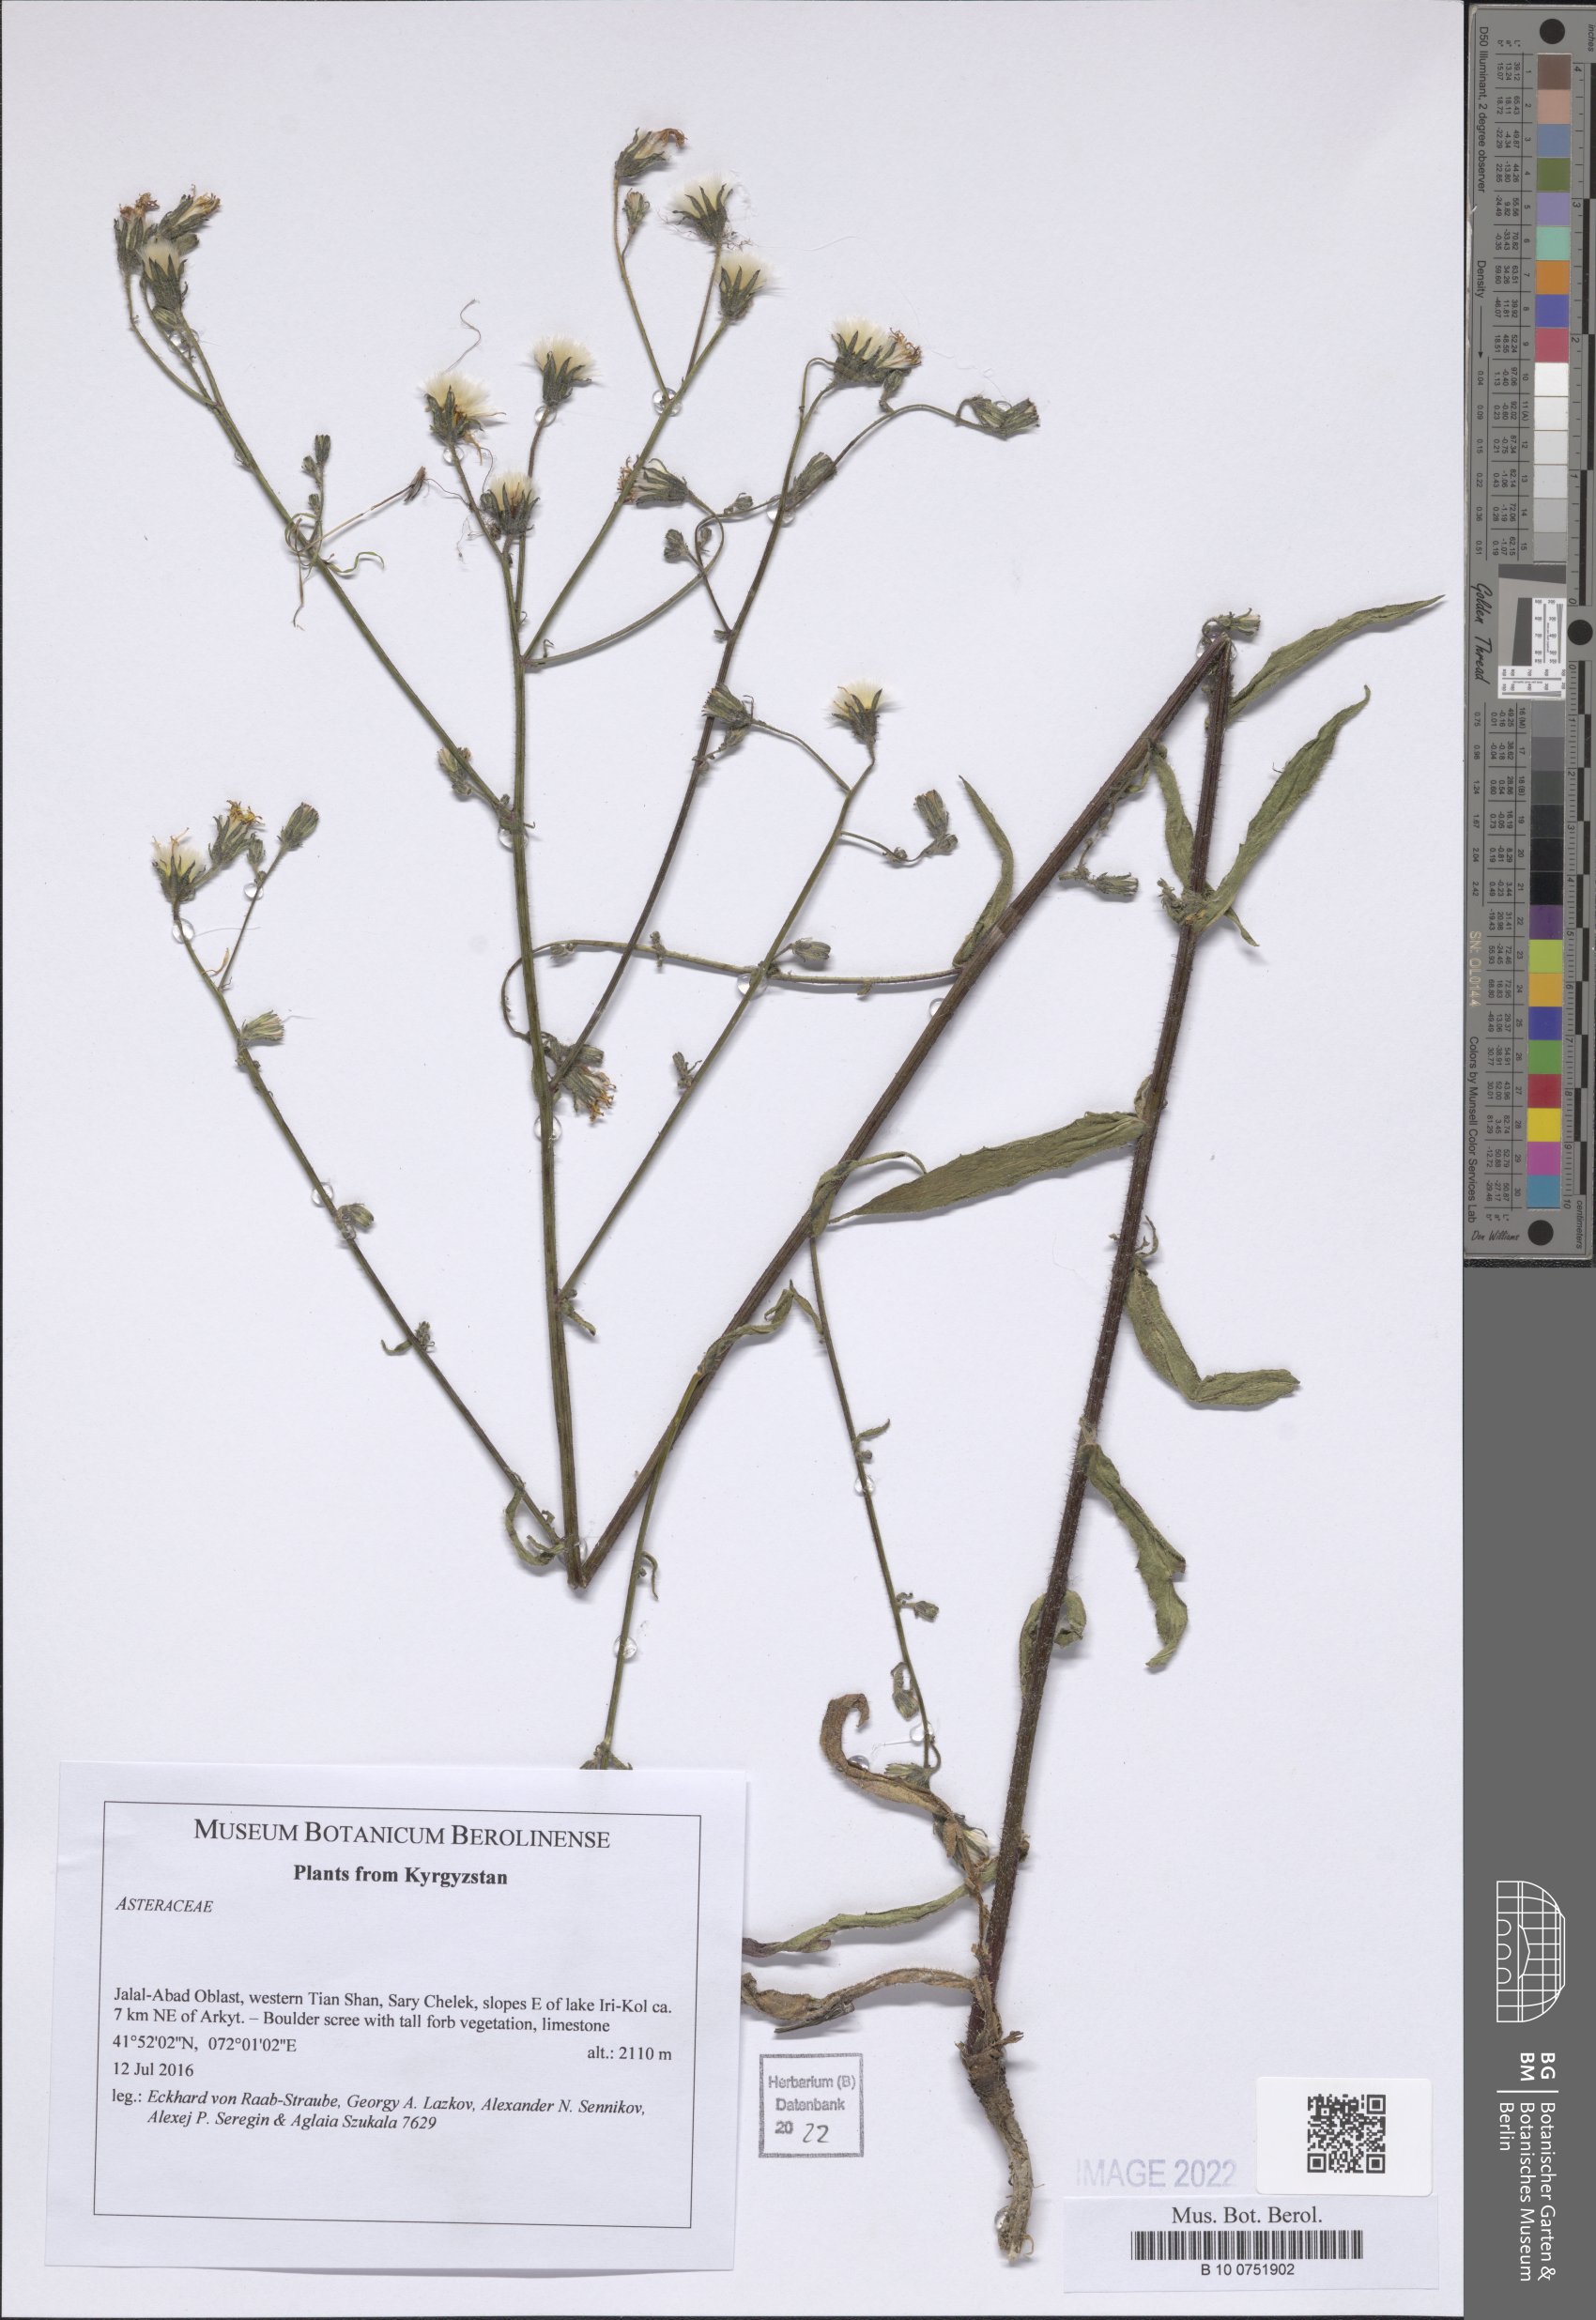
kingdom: Plantae
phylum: Tracheophyta
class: Magnoliopsida
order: Asterales
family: Asteraceae
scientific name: Asteraceae
